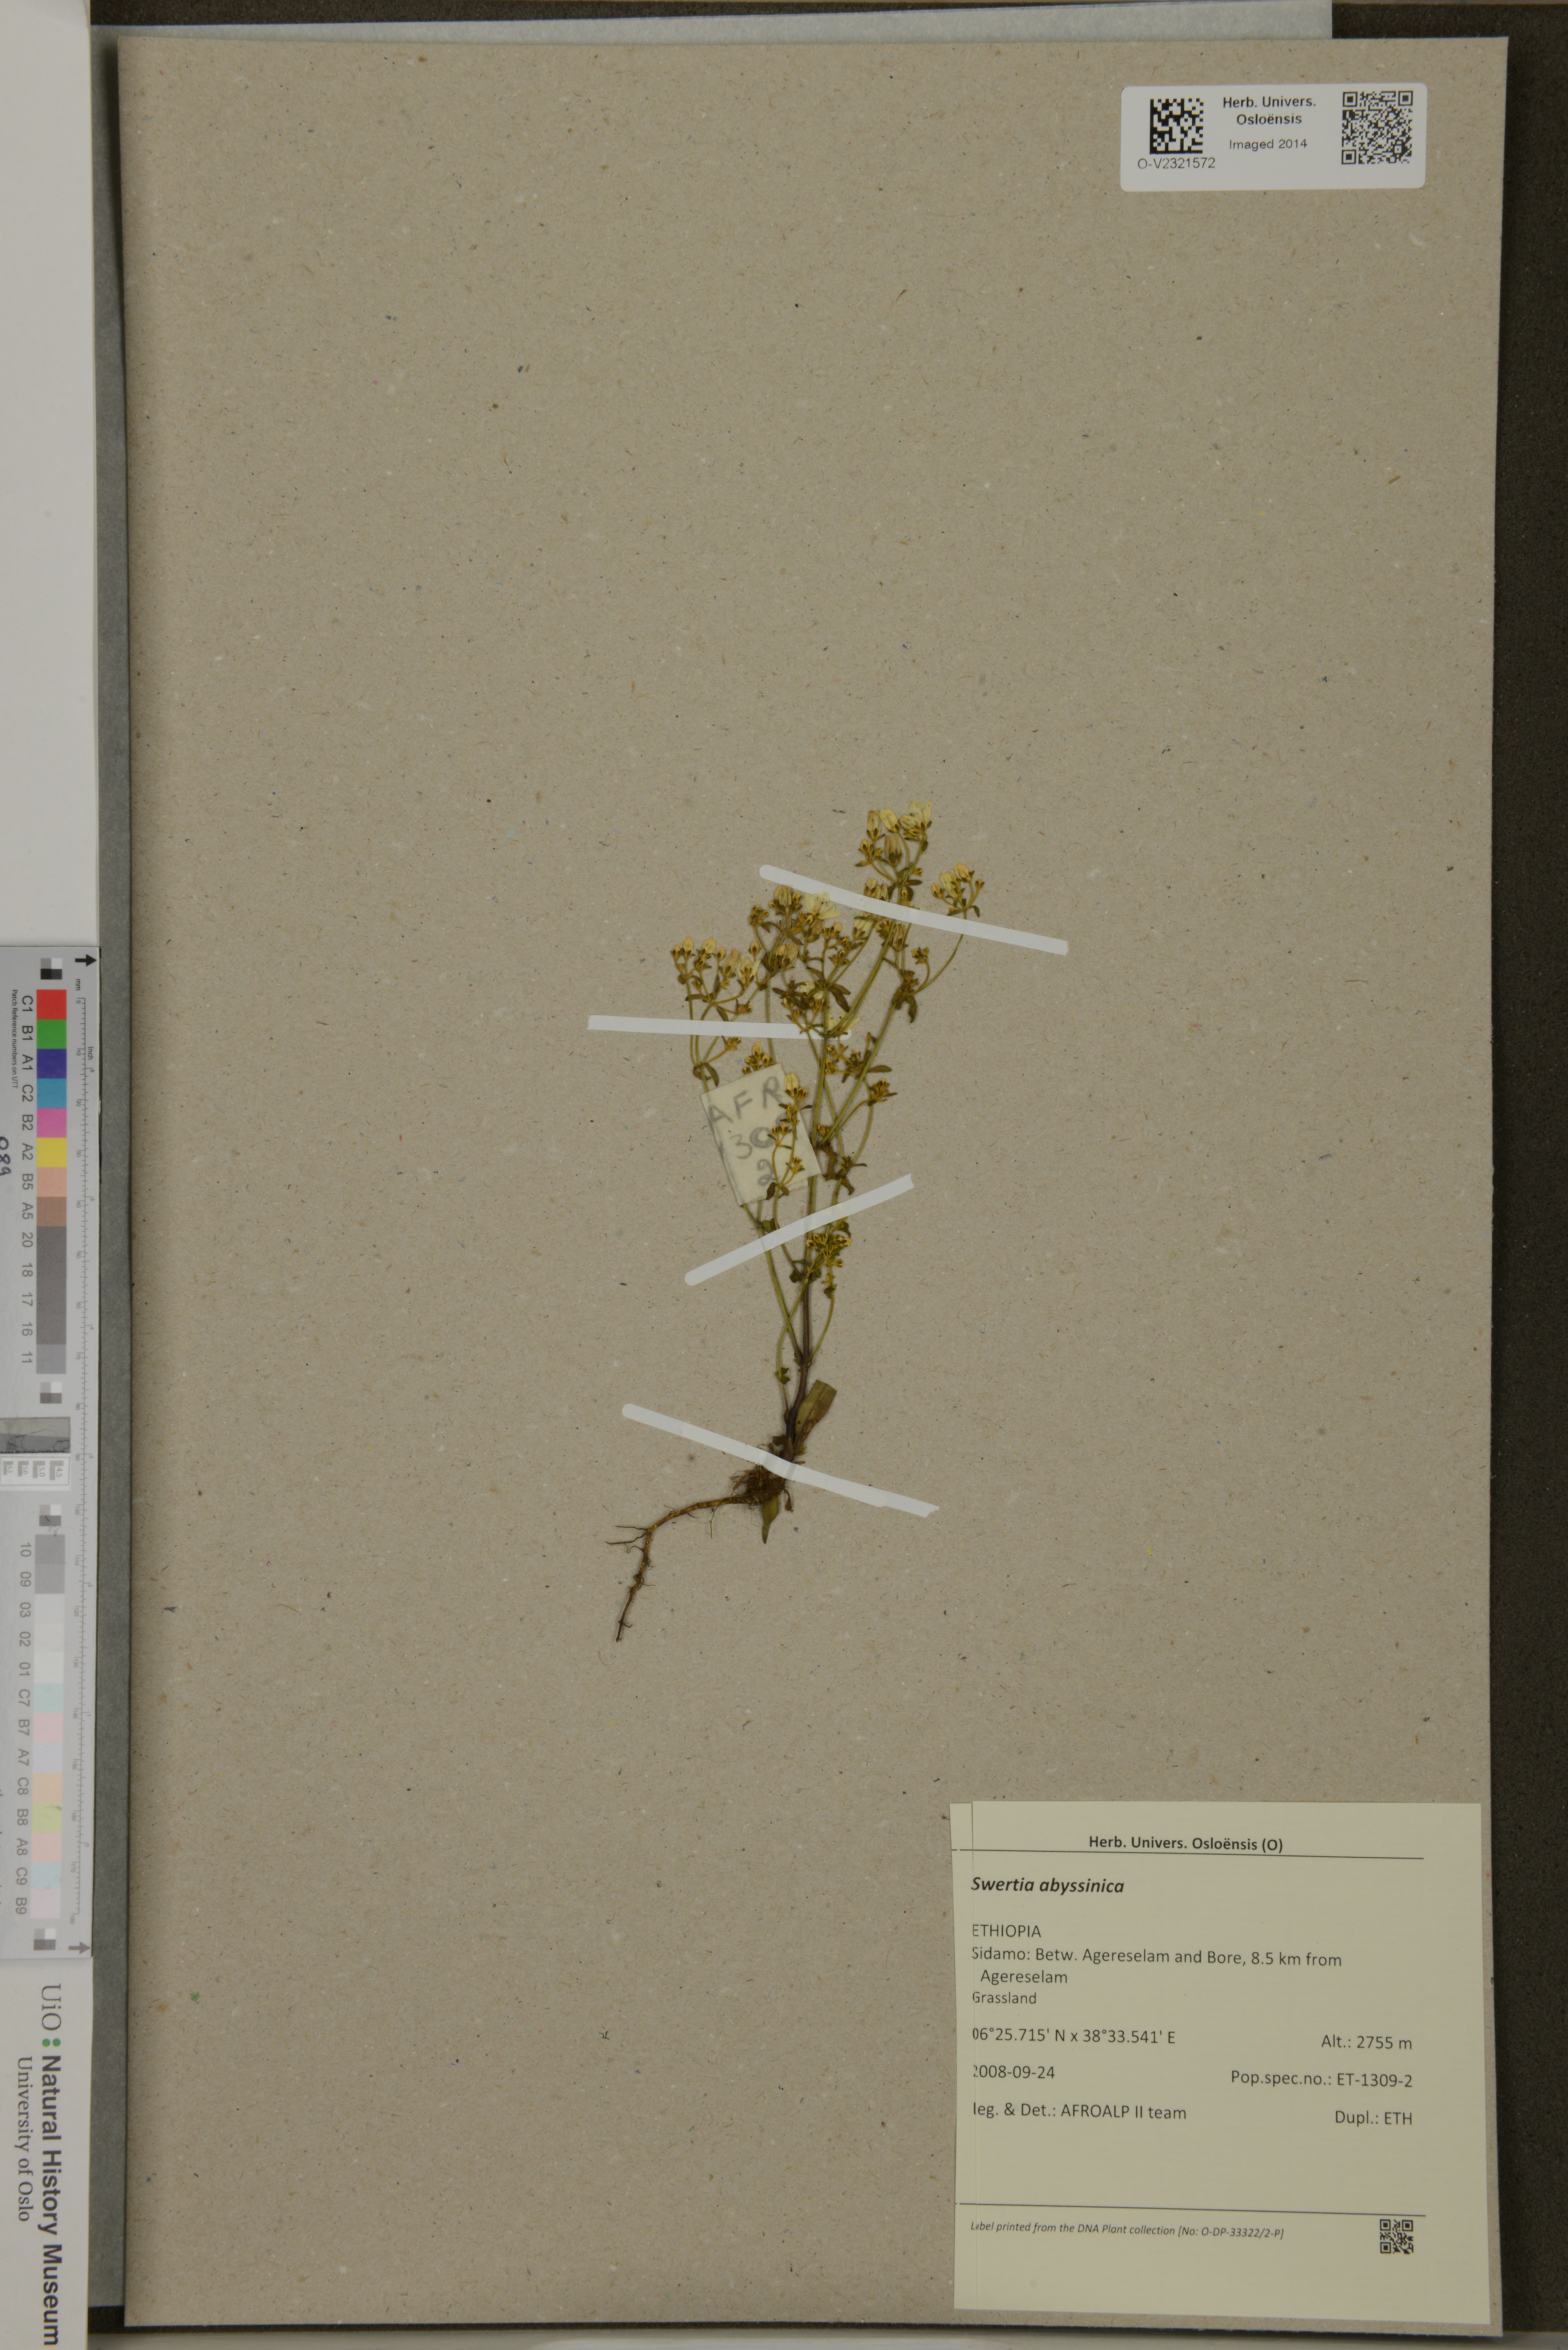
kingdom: Plantae
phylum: Tracheophyta
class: Magnoliopsida
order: Gentianales
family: Gentianaceae
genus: Swertia
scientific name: Swertia abyssinica
